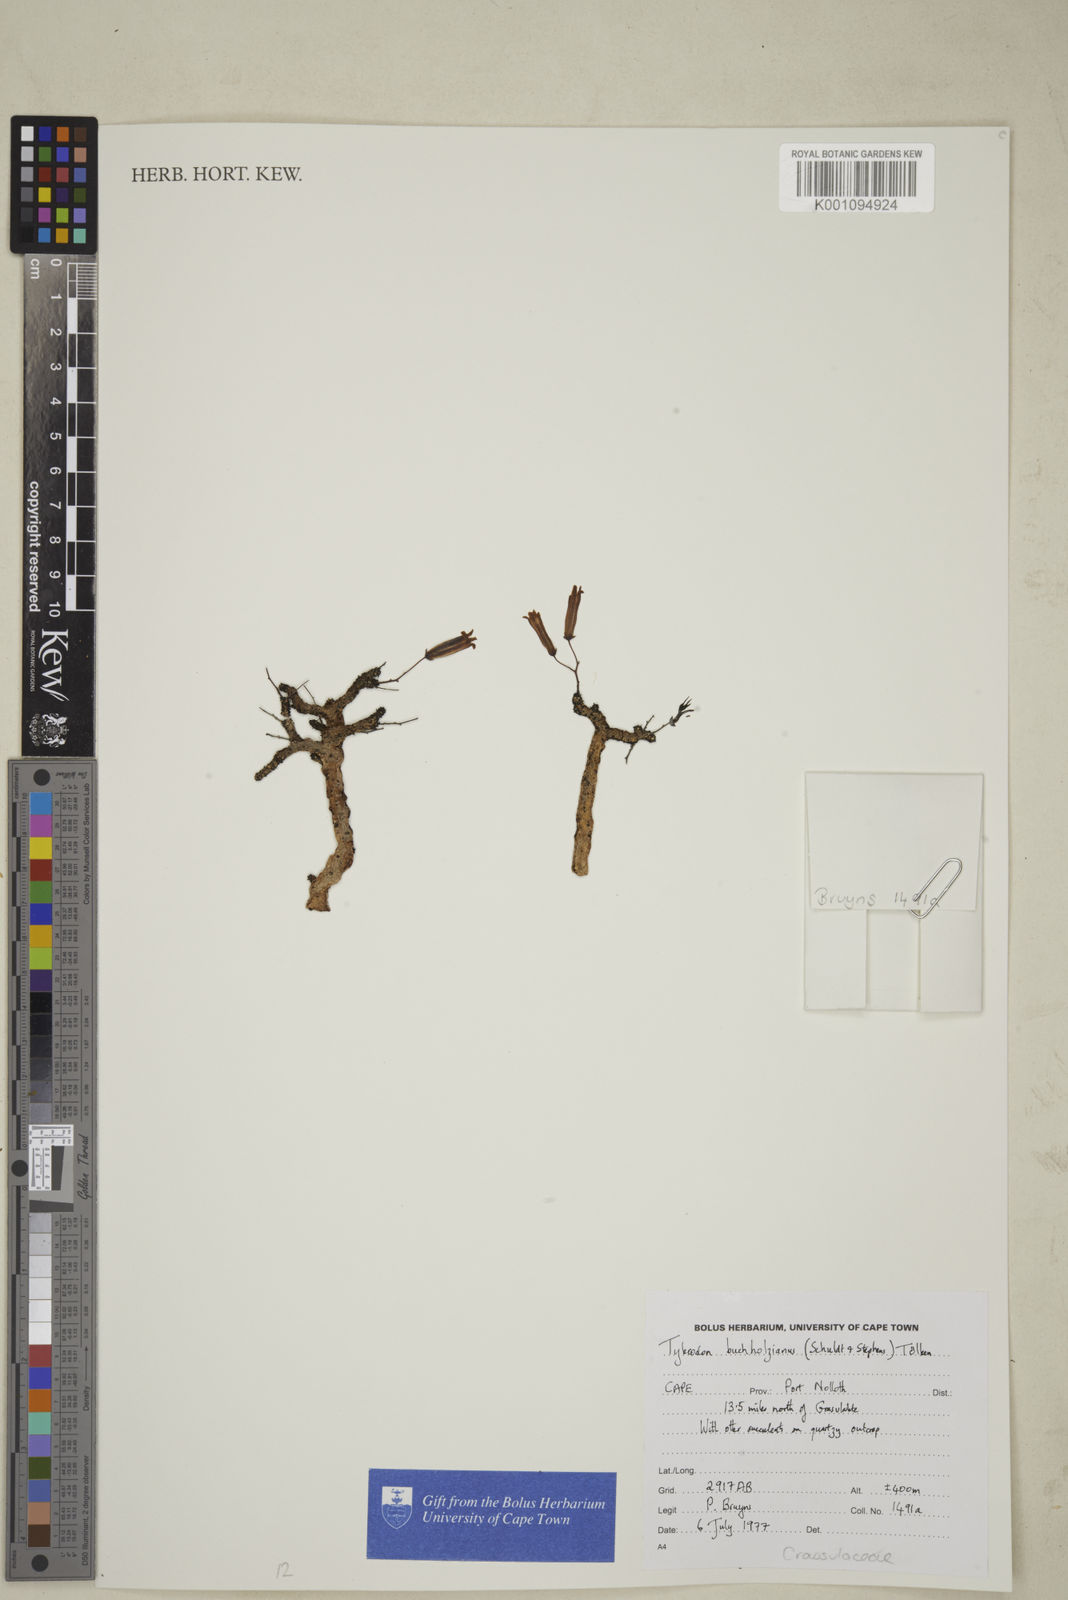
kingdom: Plantae
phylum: Tracheophyta
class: Magnoliopsida
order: Saxifragales
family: Crassulaceae
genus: Tylecodon
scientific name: Tylecodon buchholzianus
